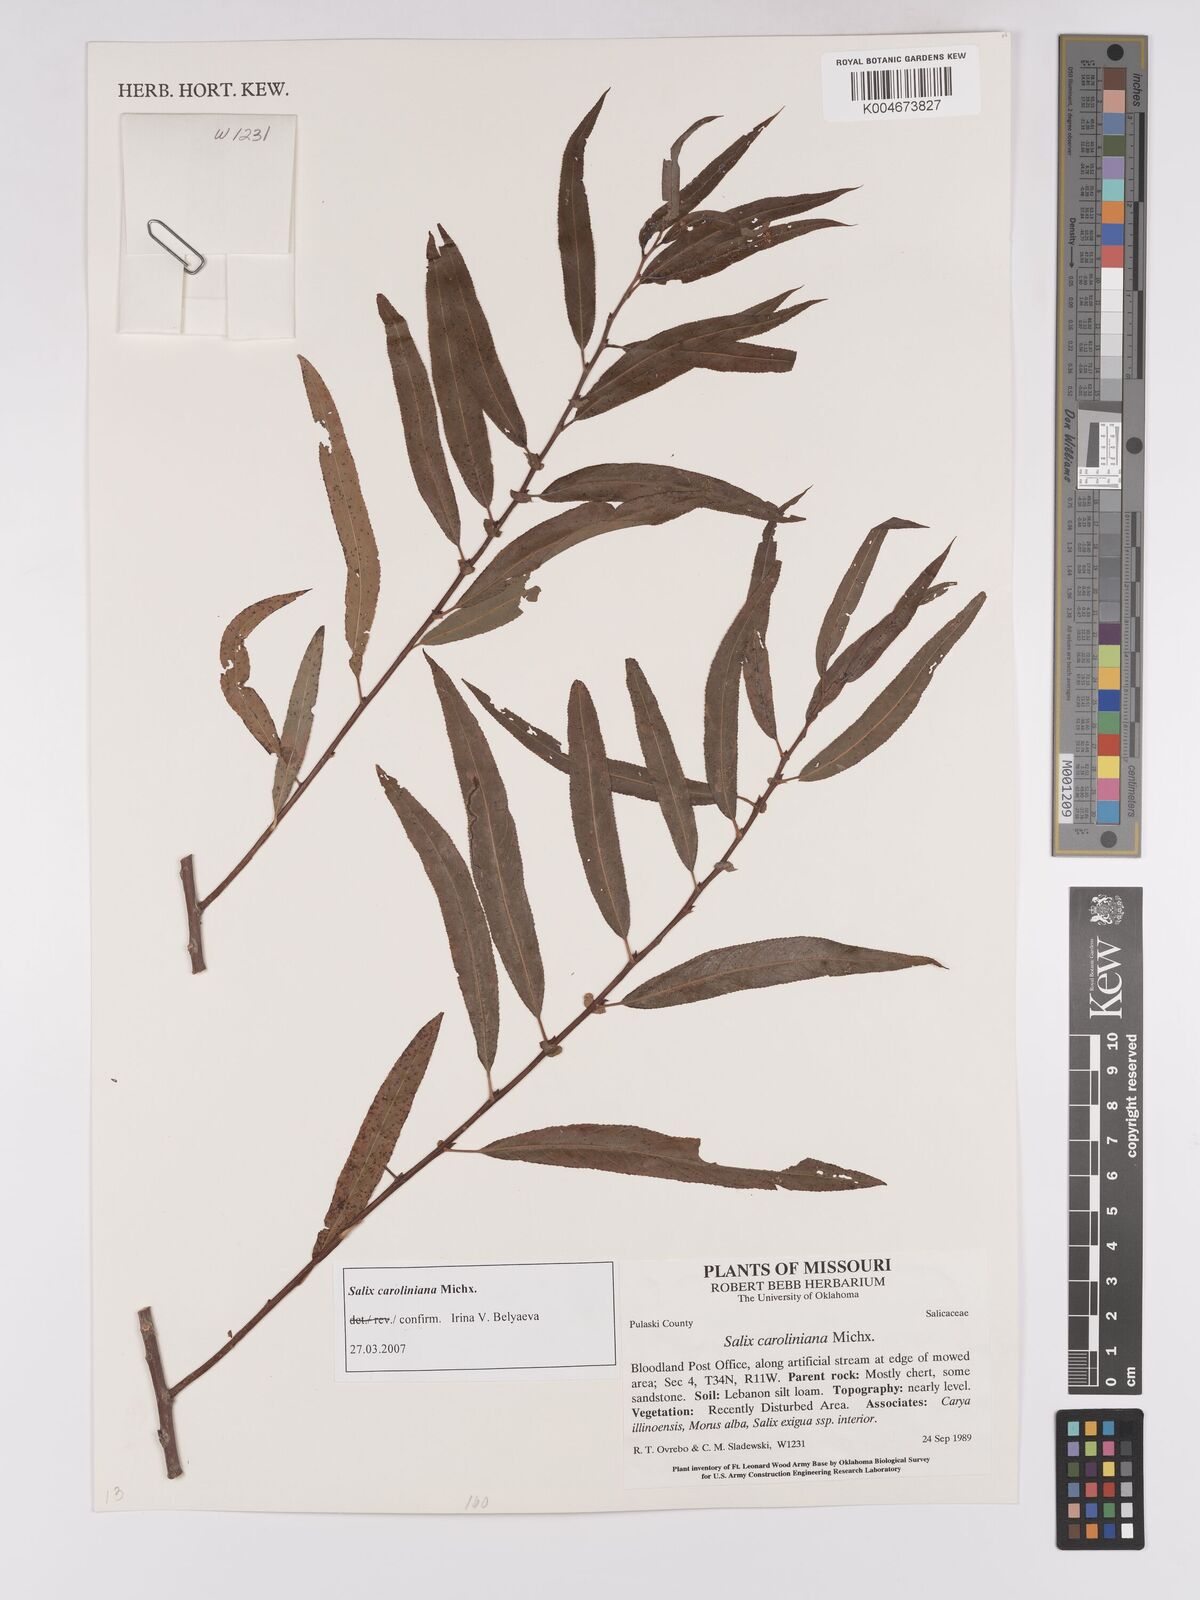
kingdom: Plantae
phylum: Tracheophyta
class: Magnoliopsida
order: Malpighiales
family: Salicaceae
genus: Salix
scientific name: Salix caroliniana
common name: Carolina willow
